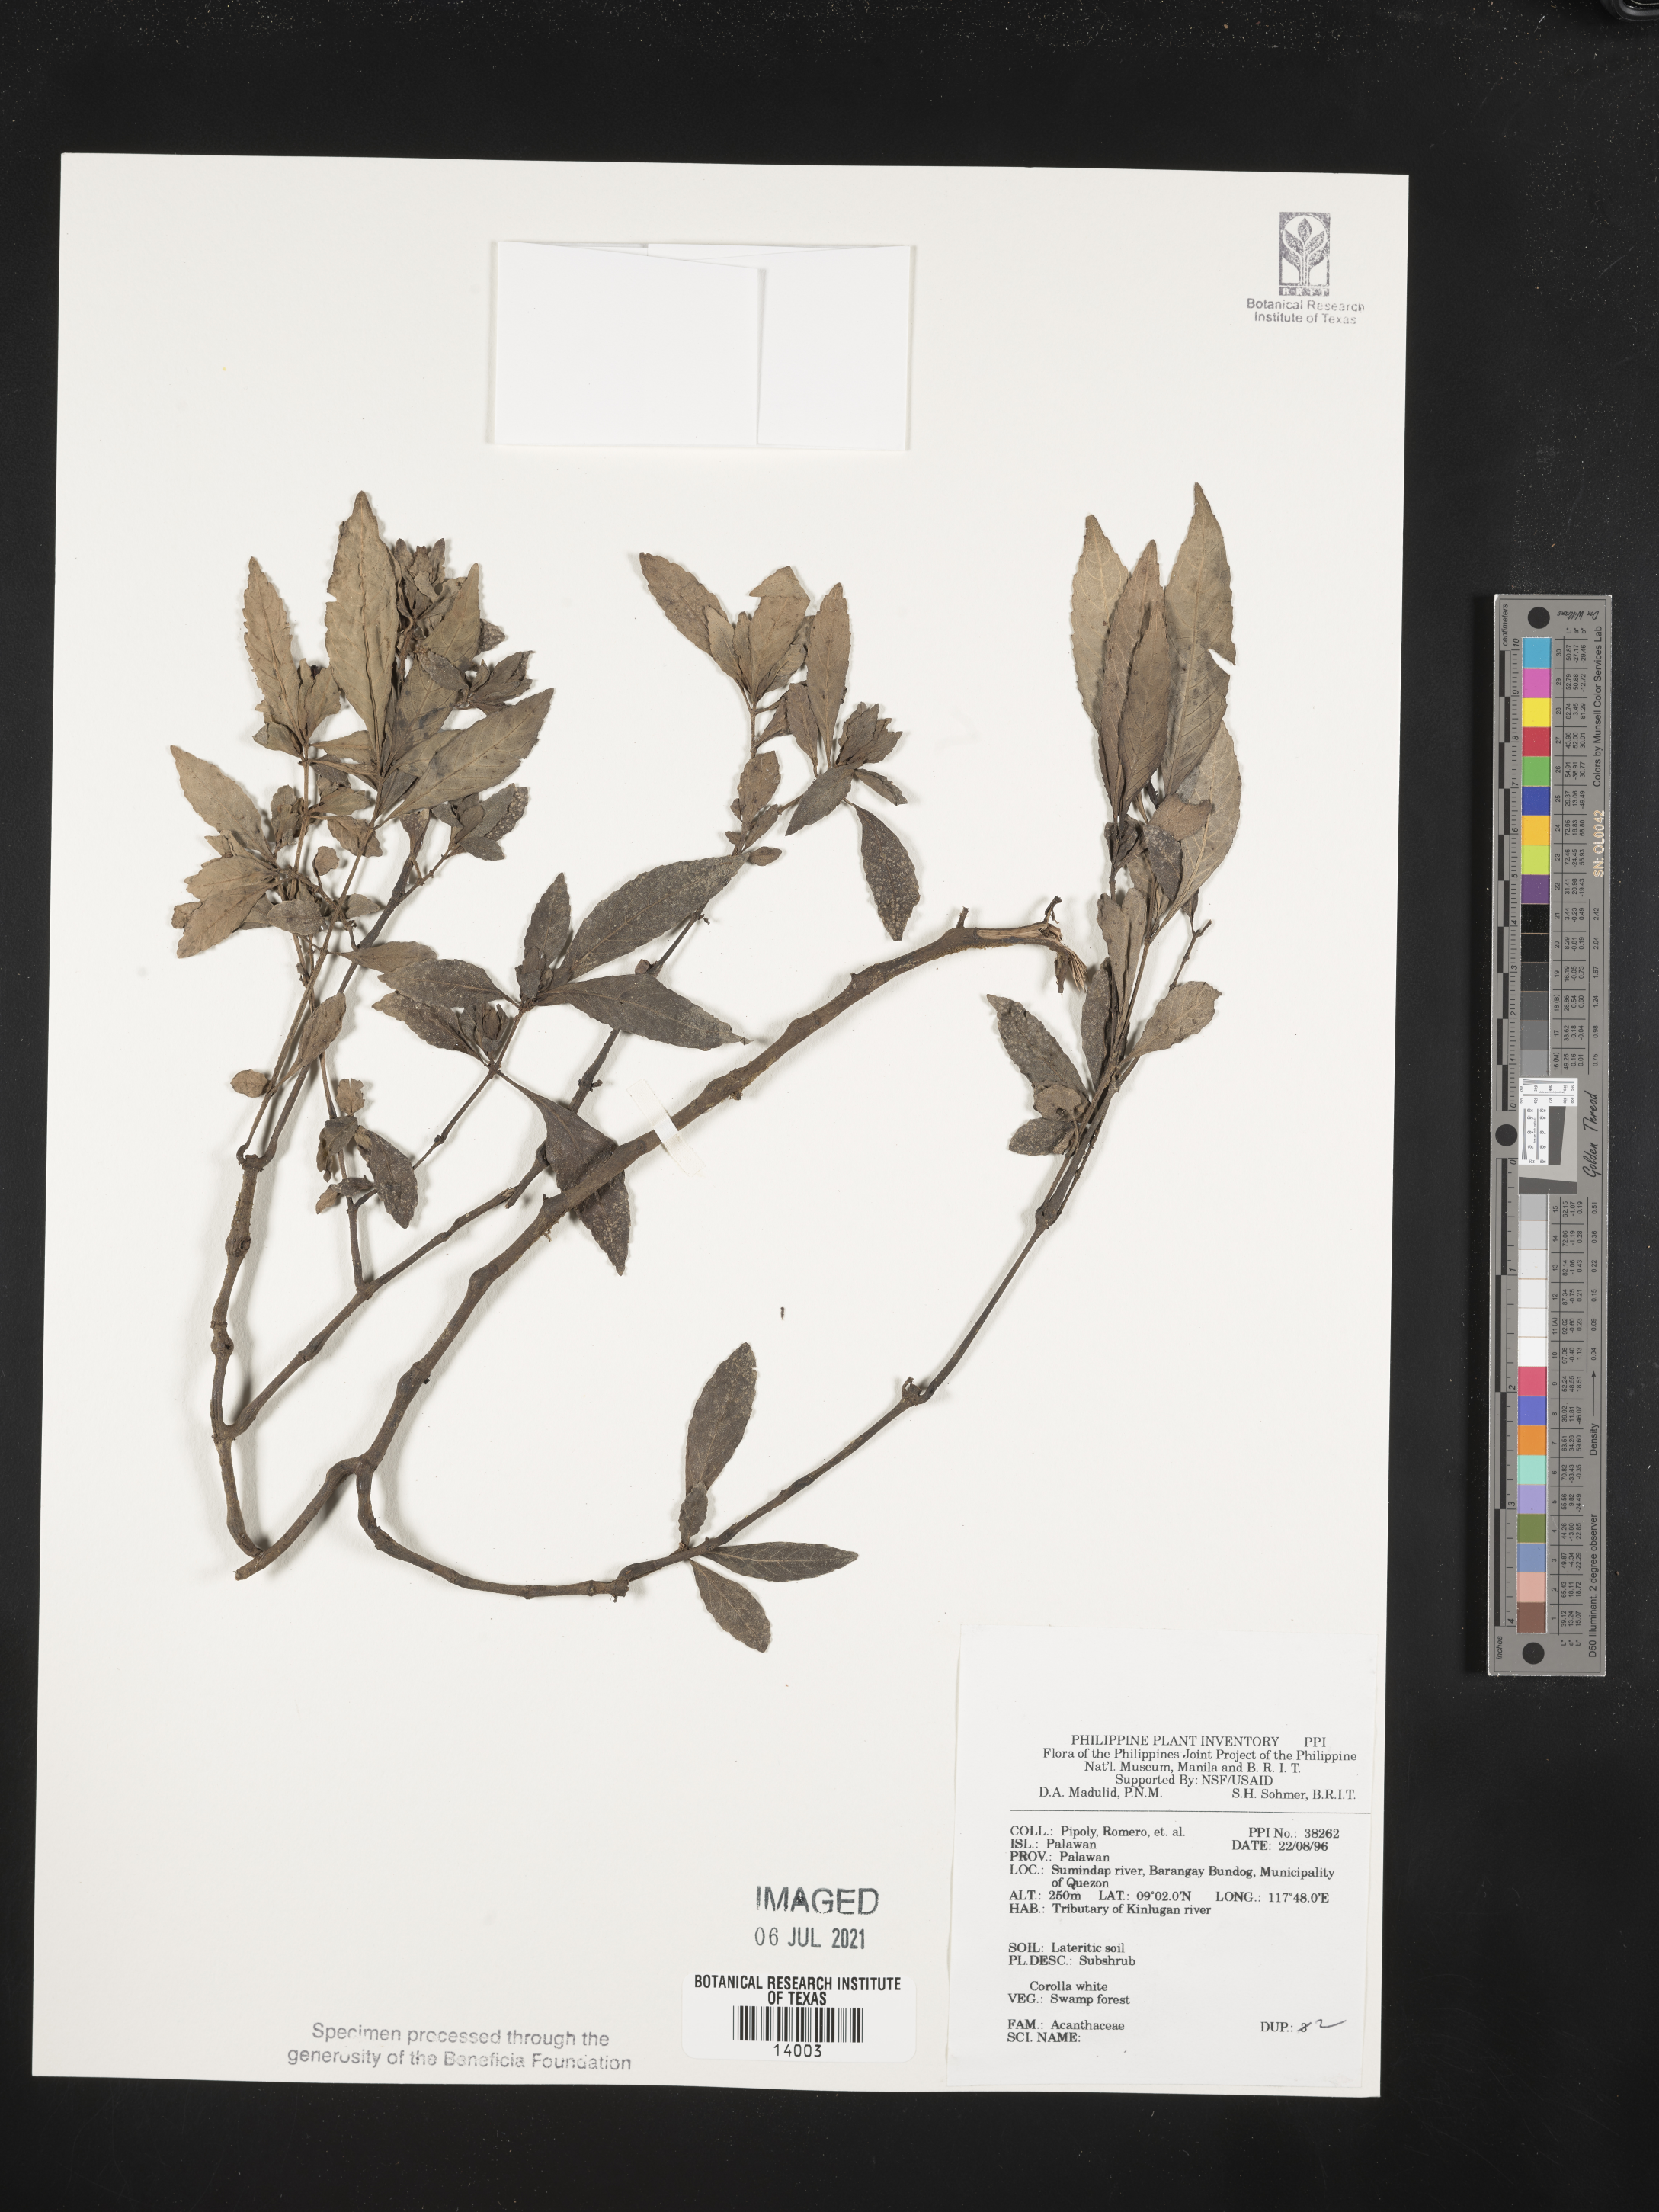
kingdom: Plantae
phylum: Tracheophyta
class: Magnoliopsida
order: Lamiales
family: Acanthaceae
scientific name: Acanthaceae
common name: Acanthaceae
